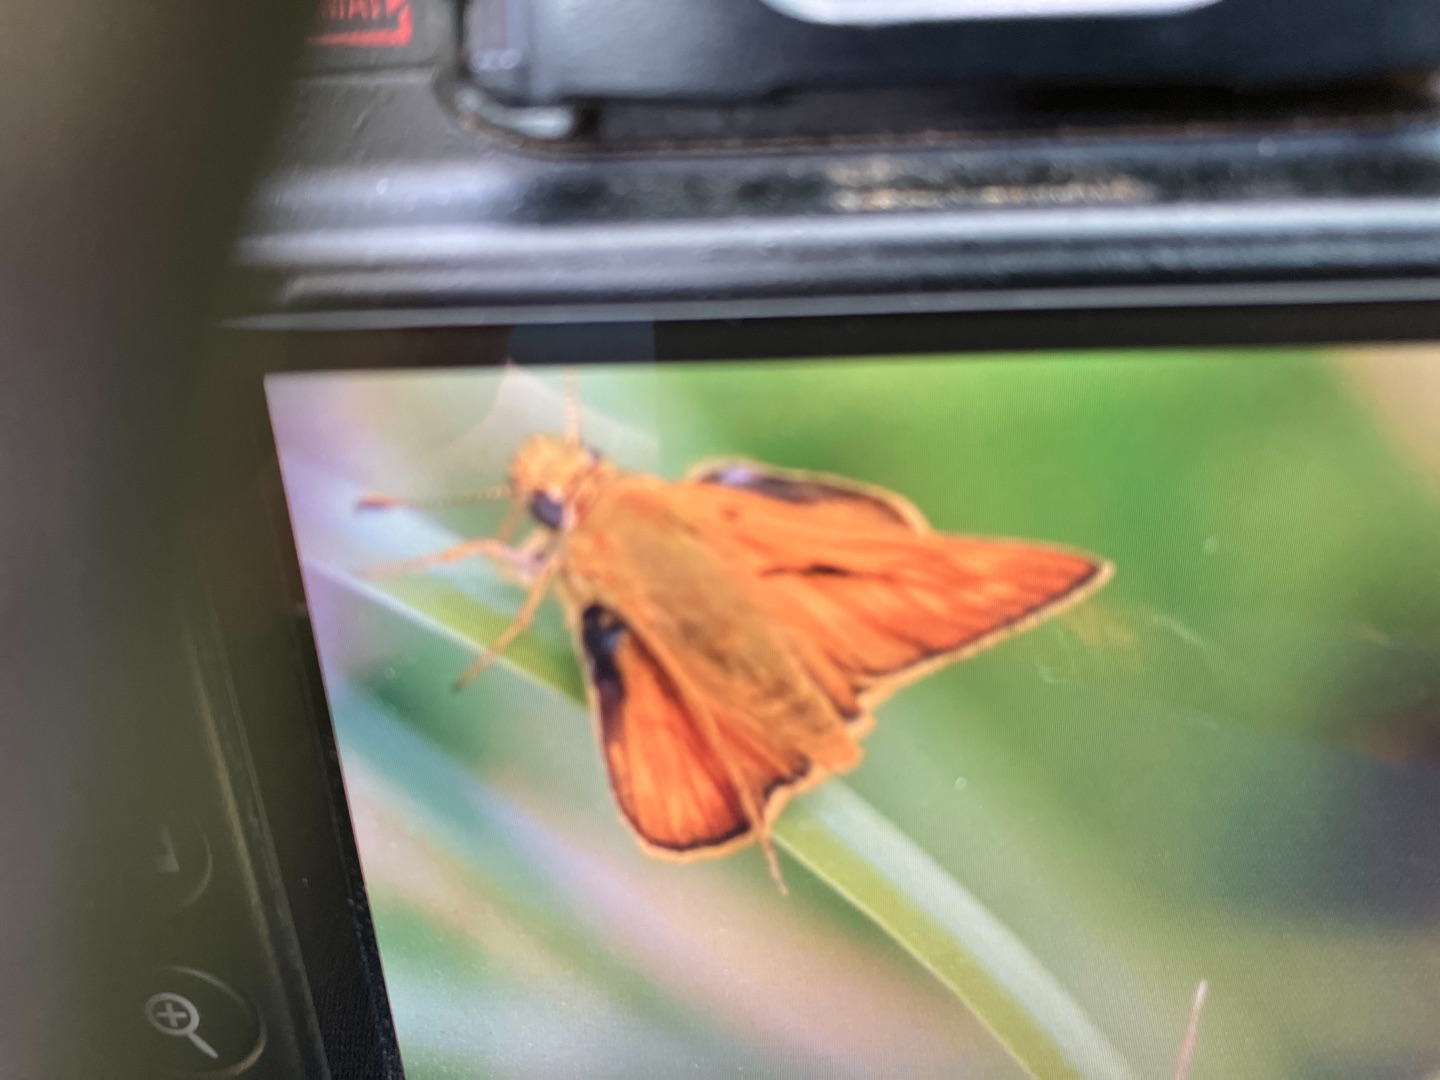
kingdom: Animalia
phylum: Arthropoda
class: Insecta
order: Lepidoptera
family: Hesperiidae
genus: Ochlodes
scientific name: Ochlodes venata
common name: Stor bredpande
